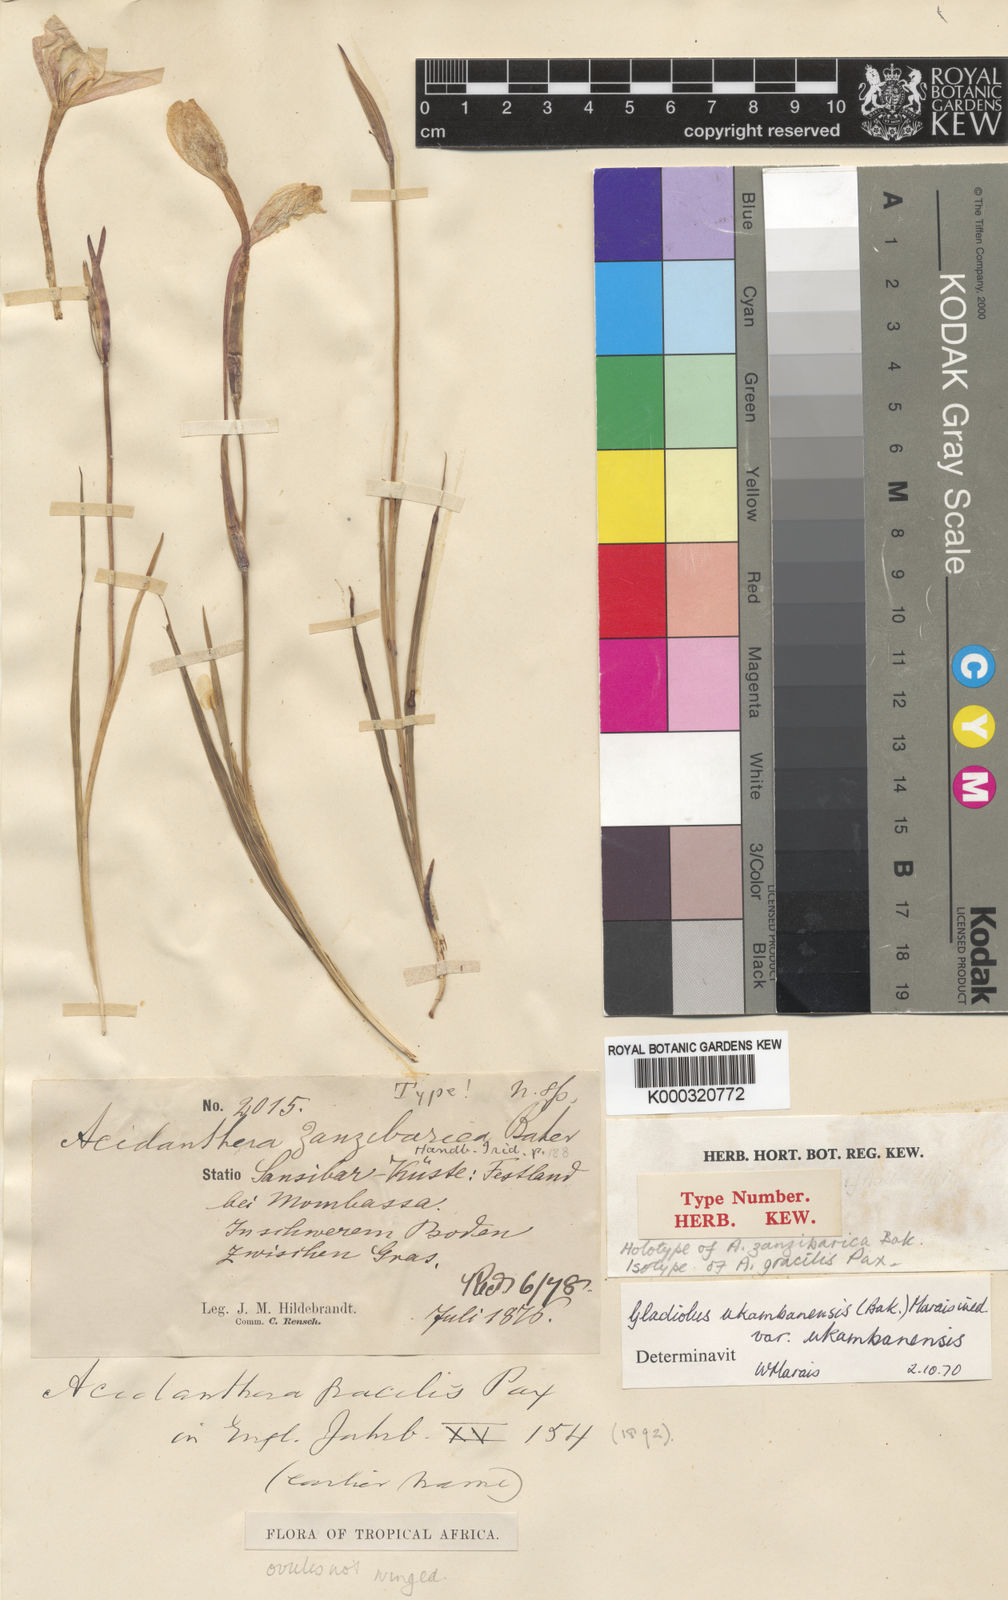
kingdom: Plantae
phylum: Tracheophyta
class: Liliopsida
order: Asparagales
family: Iridaceae
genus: Gladiolus
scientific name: Gladiolus candidus
